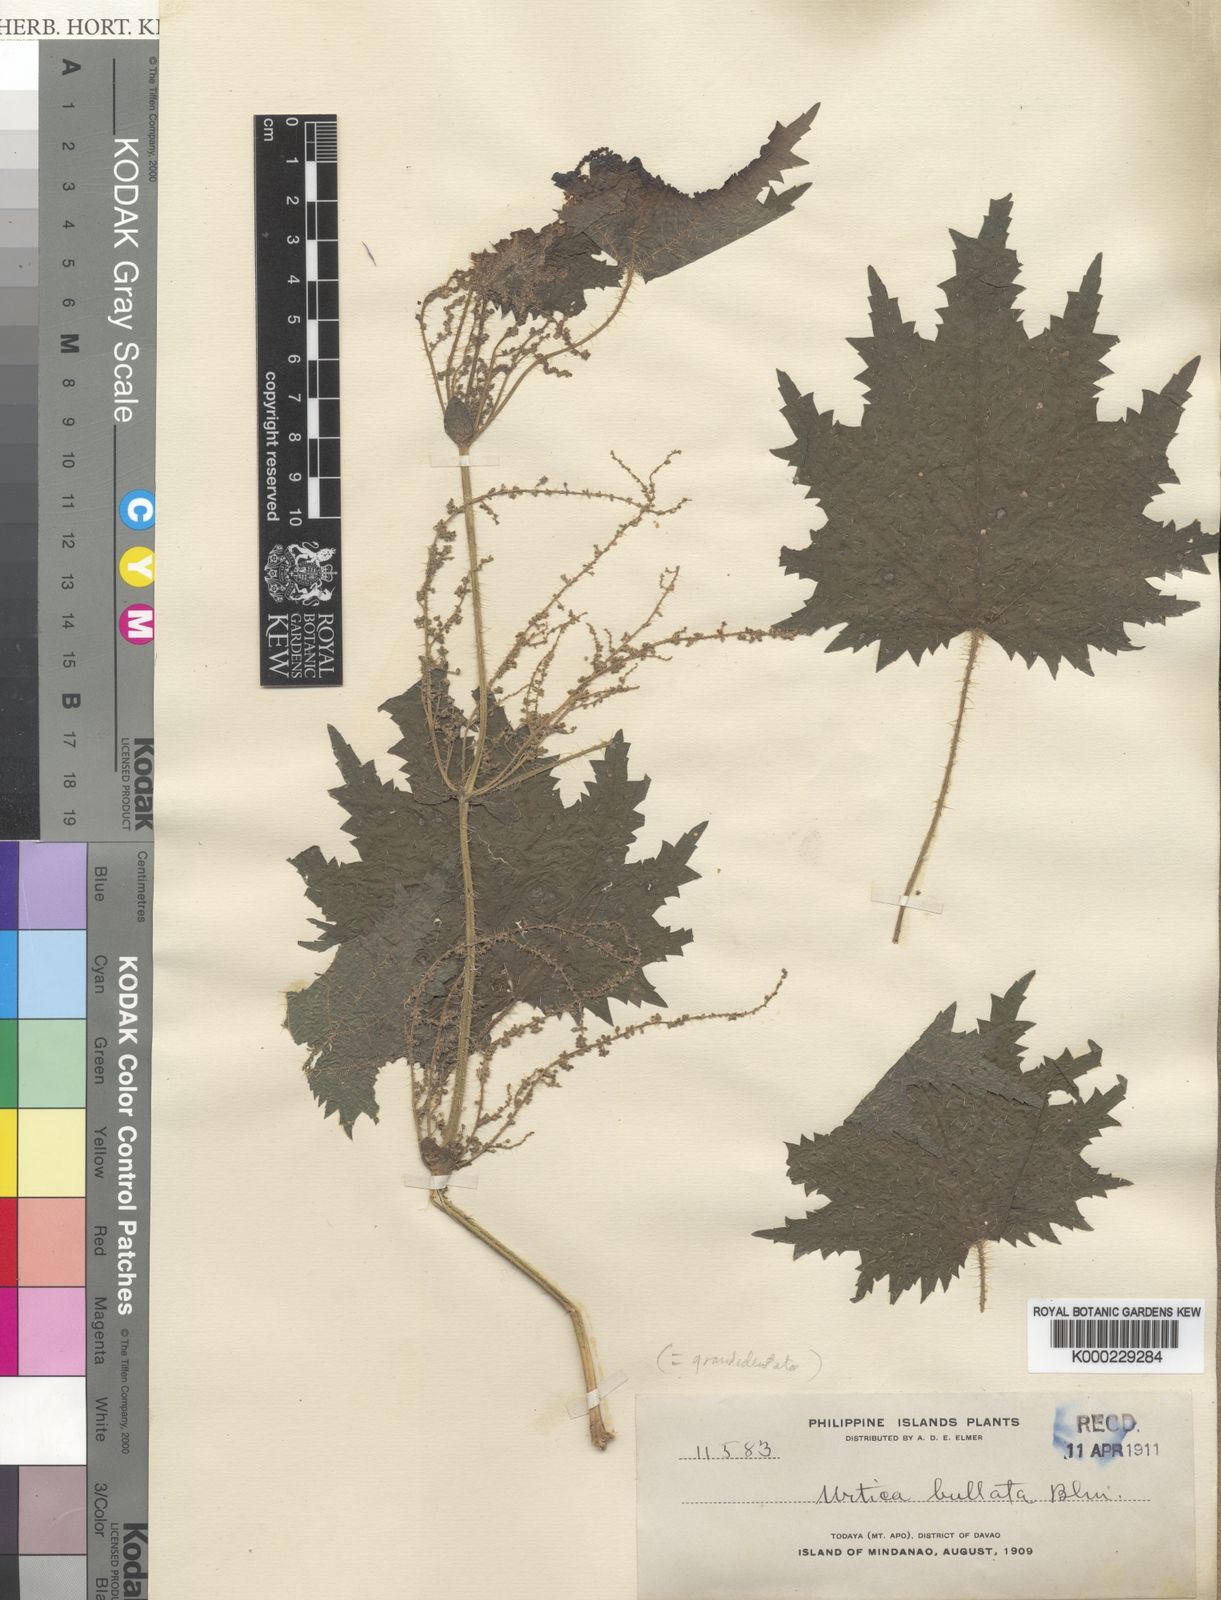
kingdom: Plantae
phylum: Tracheophyta
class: Magnoliopsida
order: Rosales
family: Urticaceae
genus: Urtica
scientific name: Urtica grandidentata
